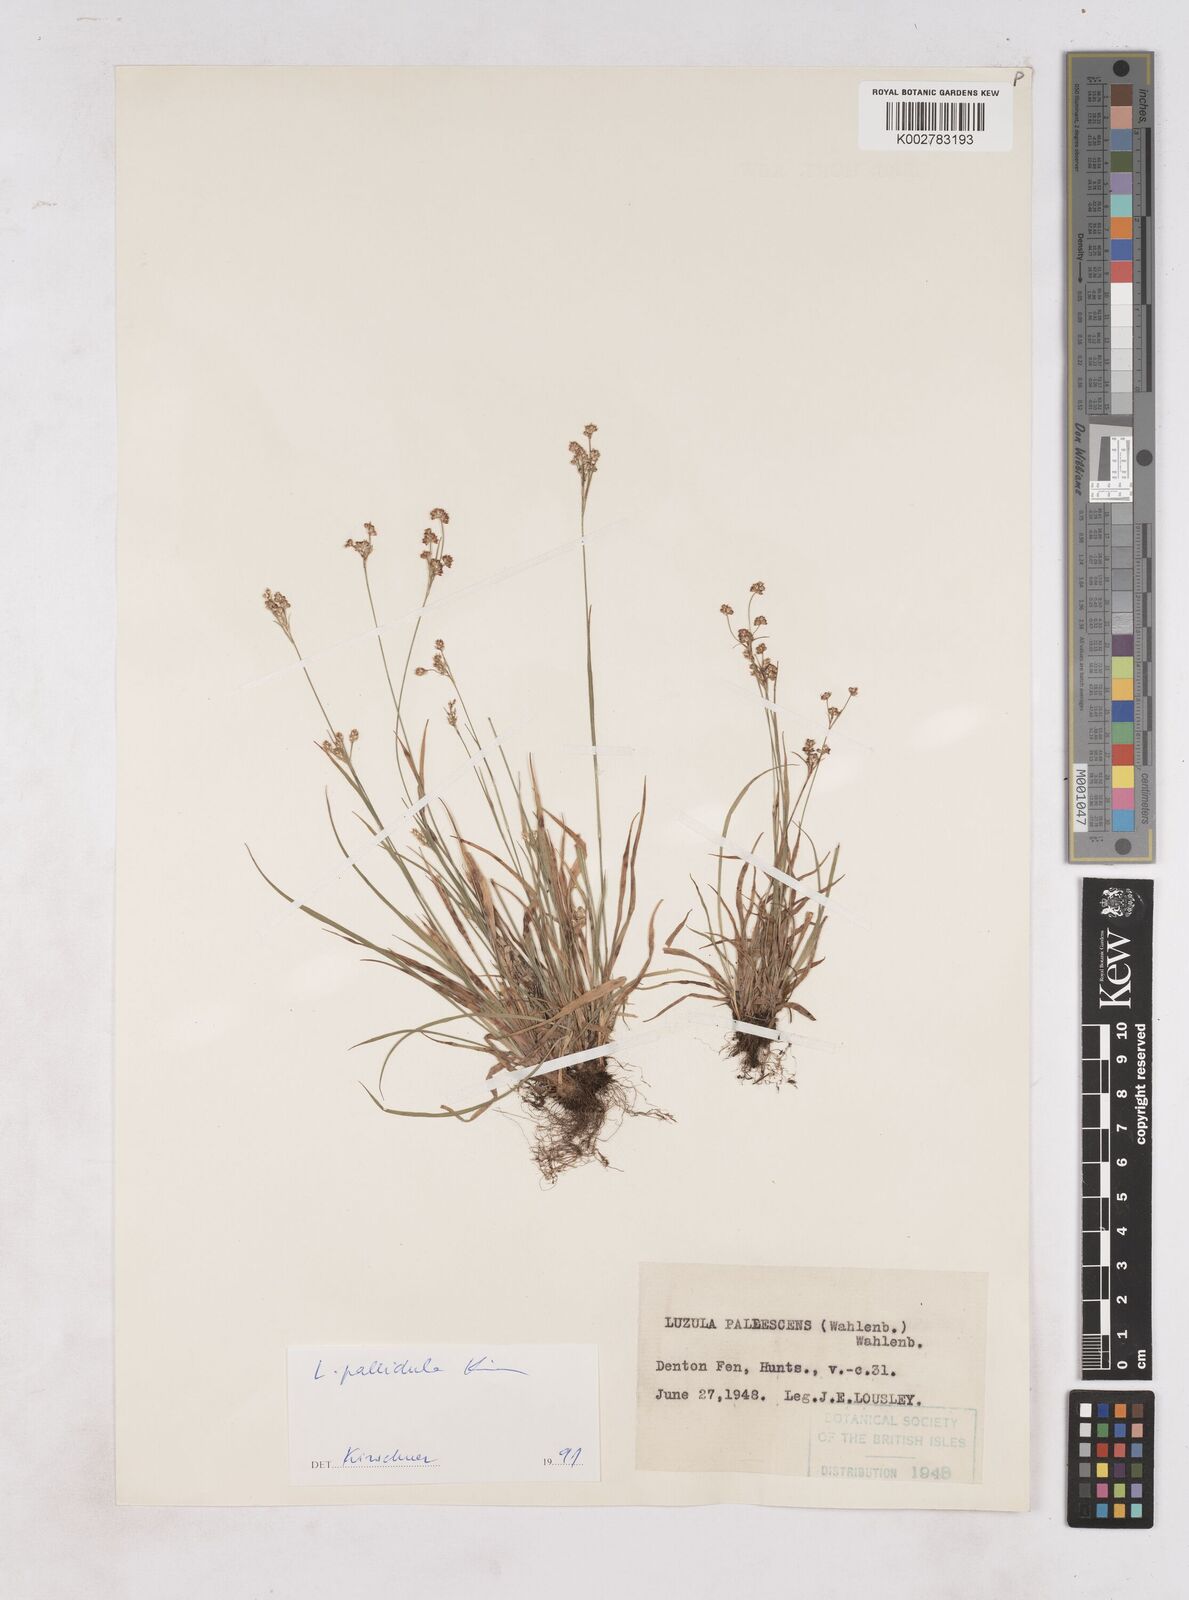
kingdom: Plantae
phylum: Tracheophyta
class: Liliopsida
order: Poales
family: Juncaceae
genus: Luzula
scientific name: Luzula pallescens
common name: Fen wood-rush
